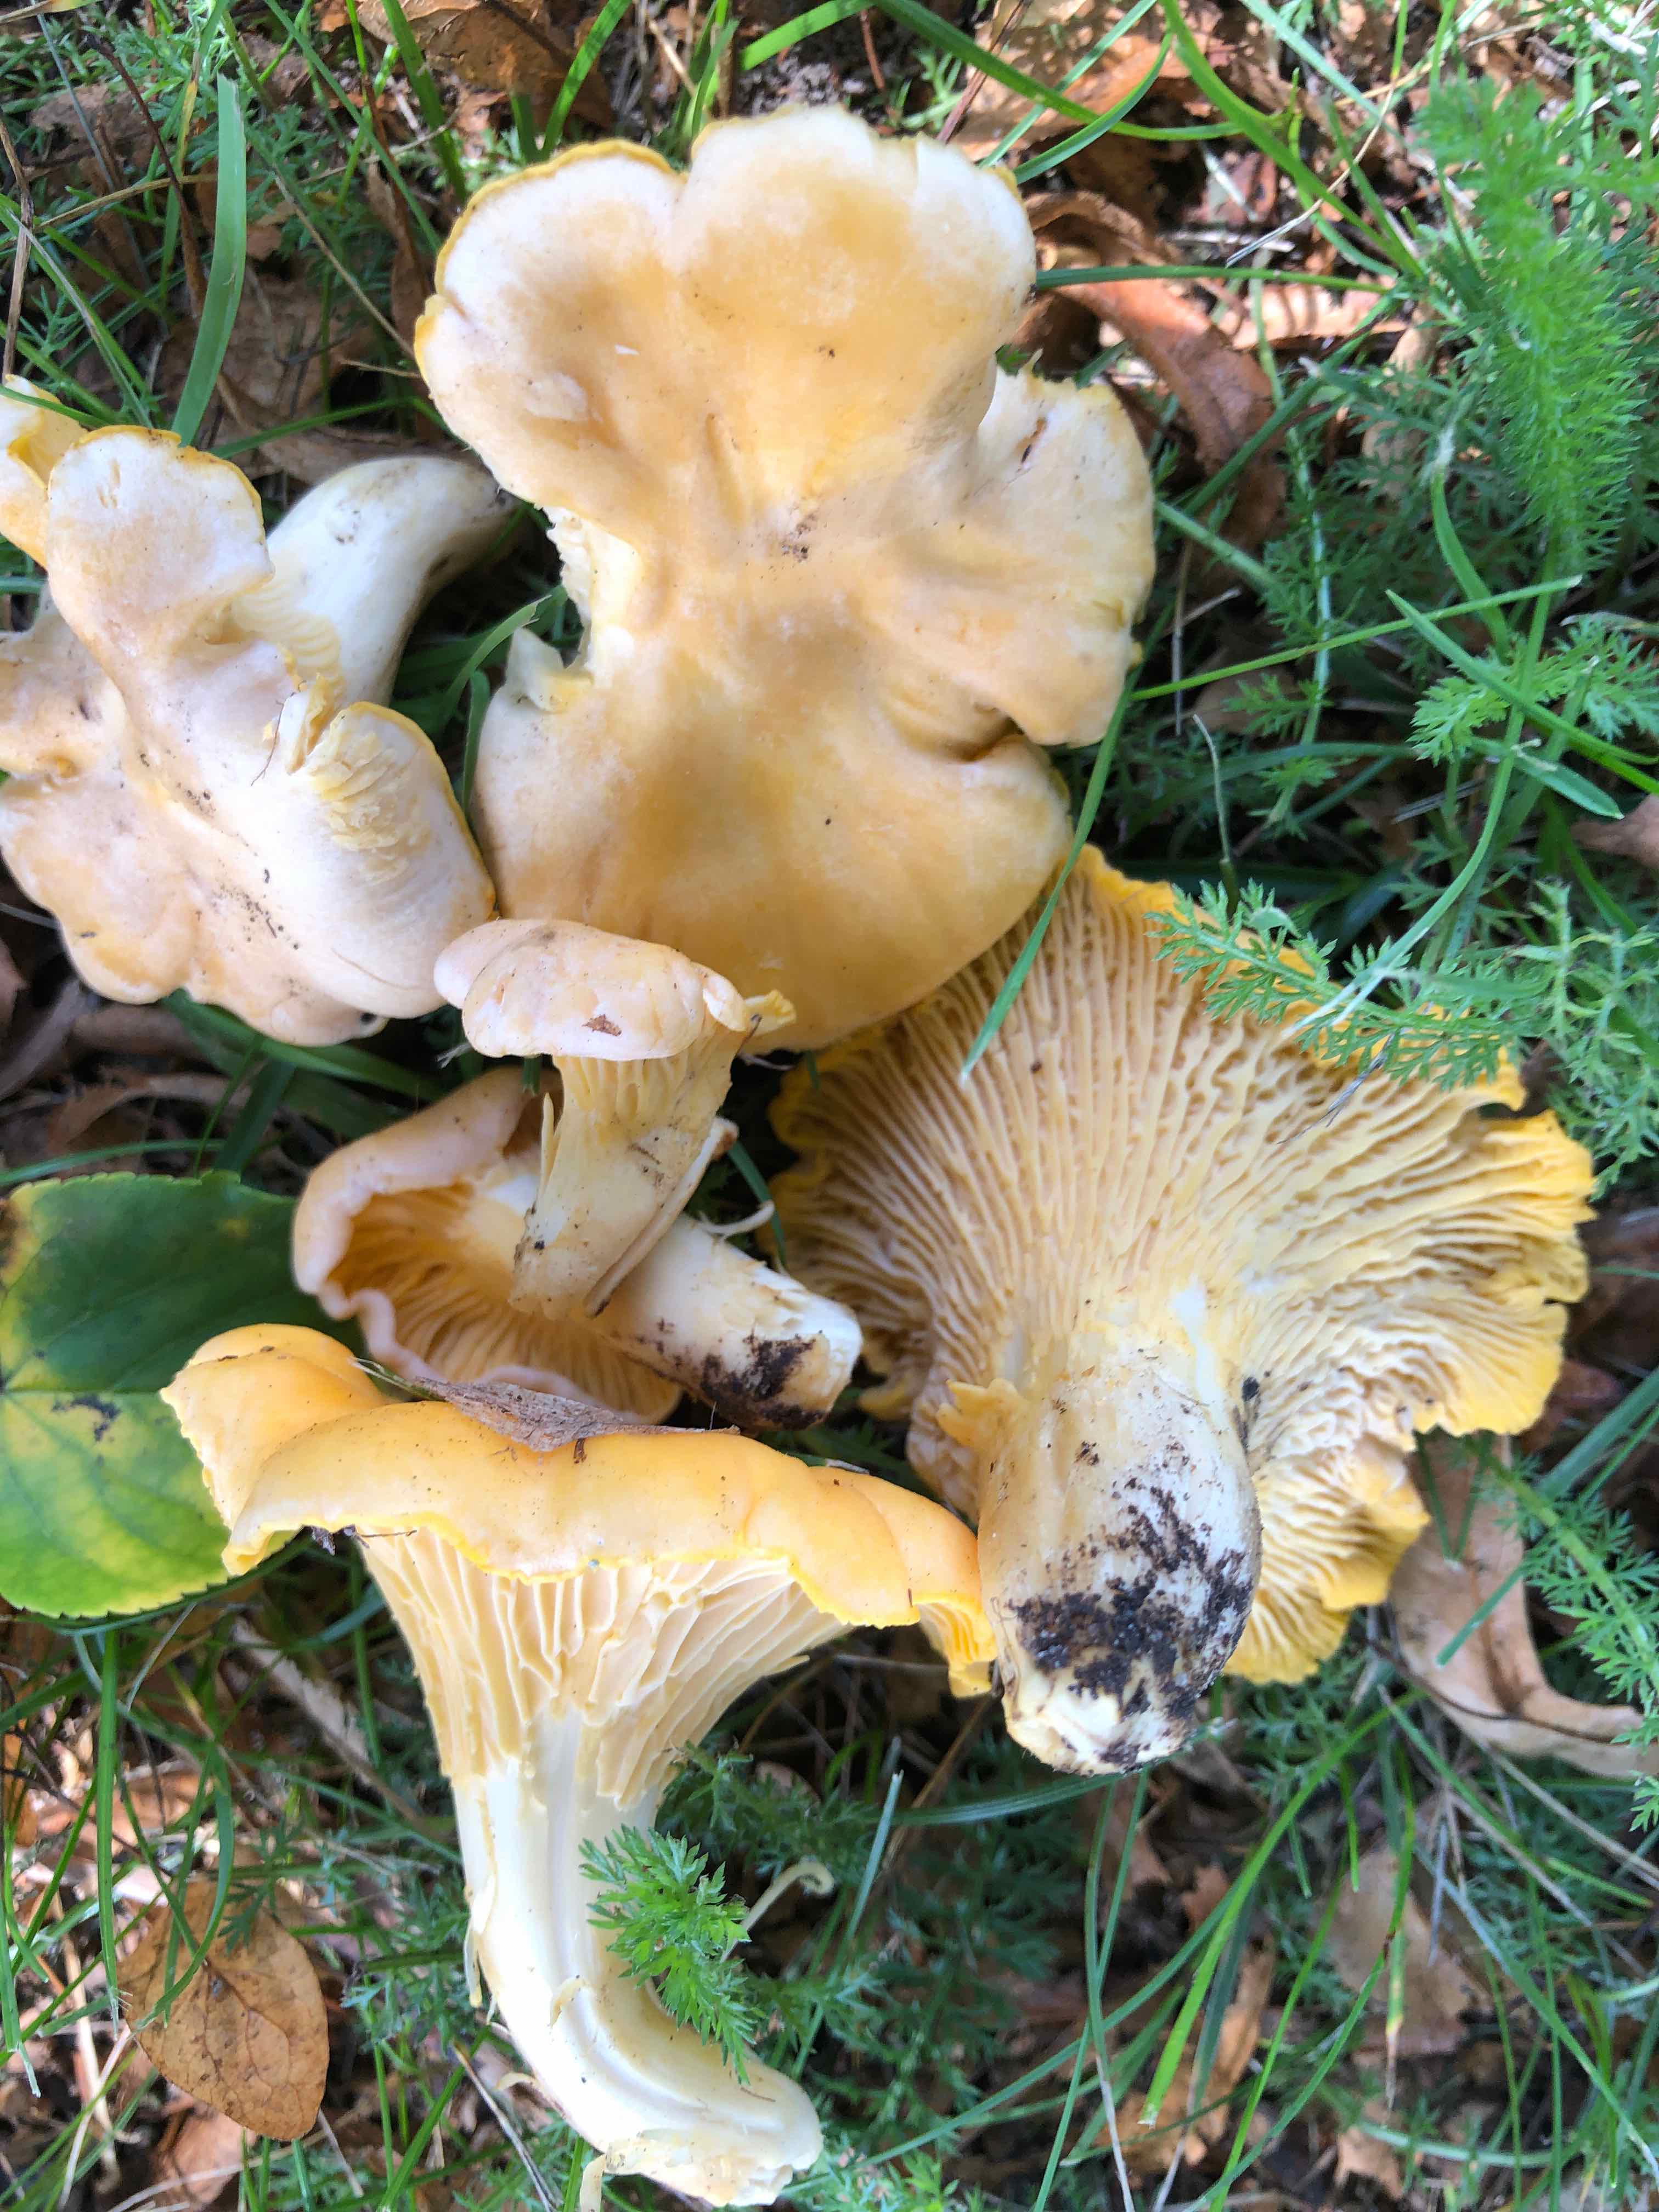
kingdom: Fungi
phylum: Basidiomycota
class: Agaricomycetes
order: Cantharellales
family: Hydnaceae
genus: Cantharellus
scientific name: Cantharellus pallens
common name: bleg kantarel
